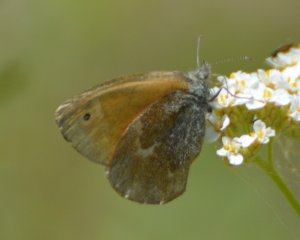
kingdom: Animalia
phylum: Arthropoda
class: Insecta
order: Lepidoptera
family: Nymphalidae
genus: Coenonympha
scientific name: Coenonympha tullia
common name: Large Heath
